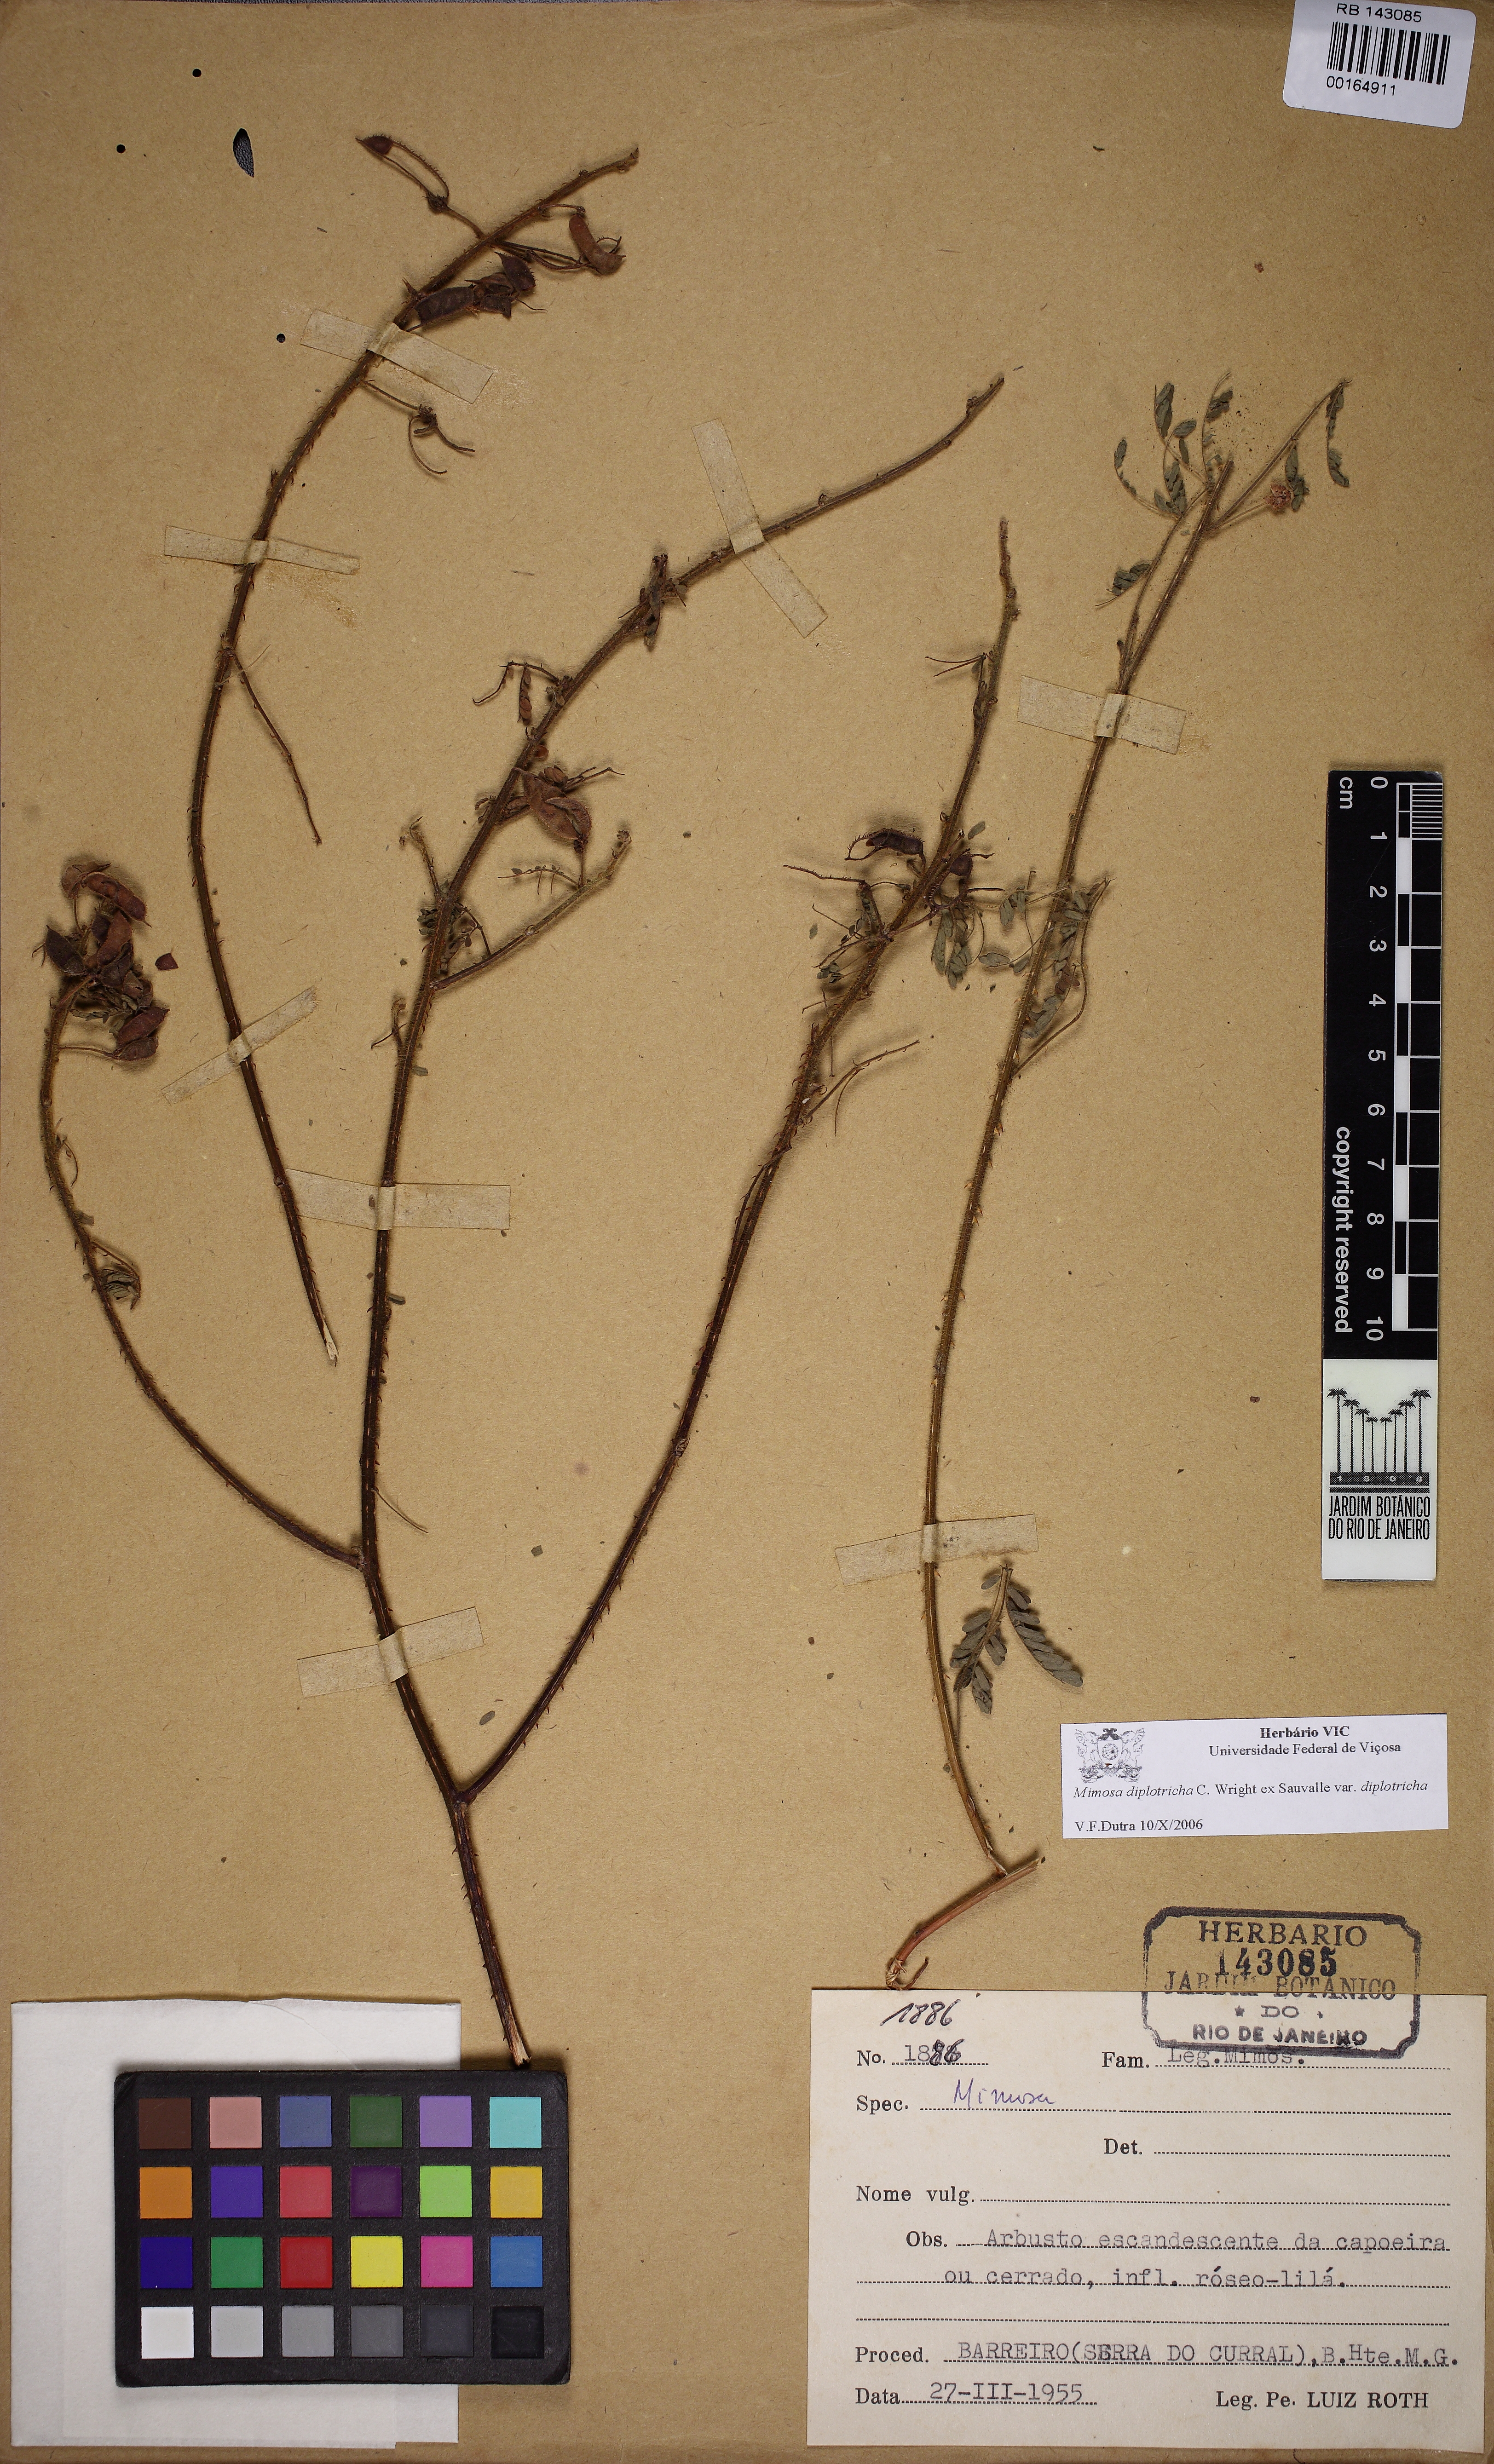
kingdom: Plantae
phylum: Tracheophyta
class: Magnoliopsida
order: Fabales
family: Fabaceae
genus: Mimosa
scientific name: Mimosa diplotricha
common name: Giant sensitive-plant
